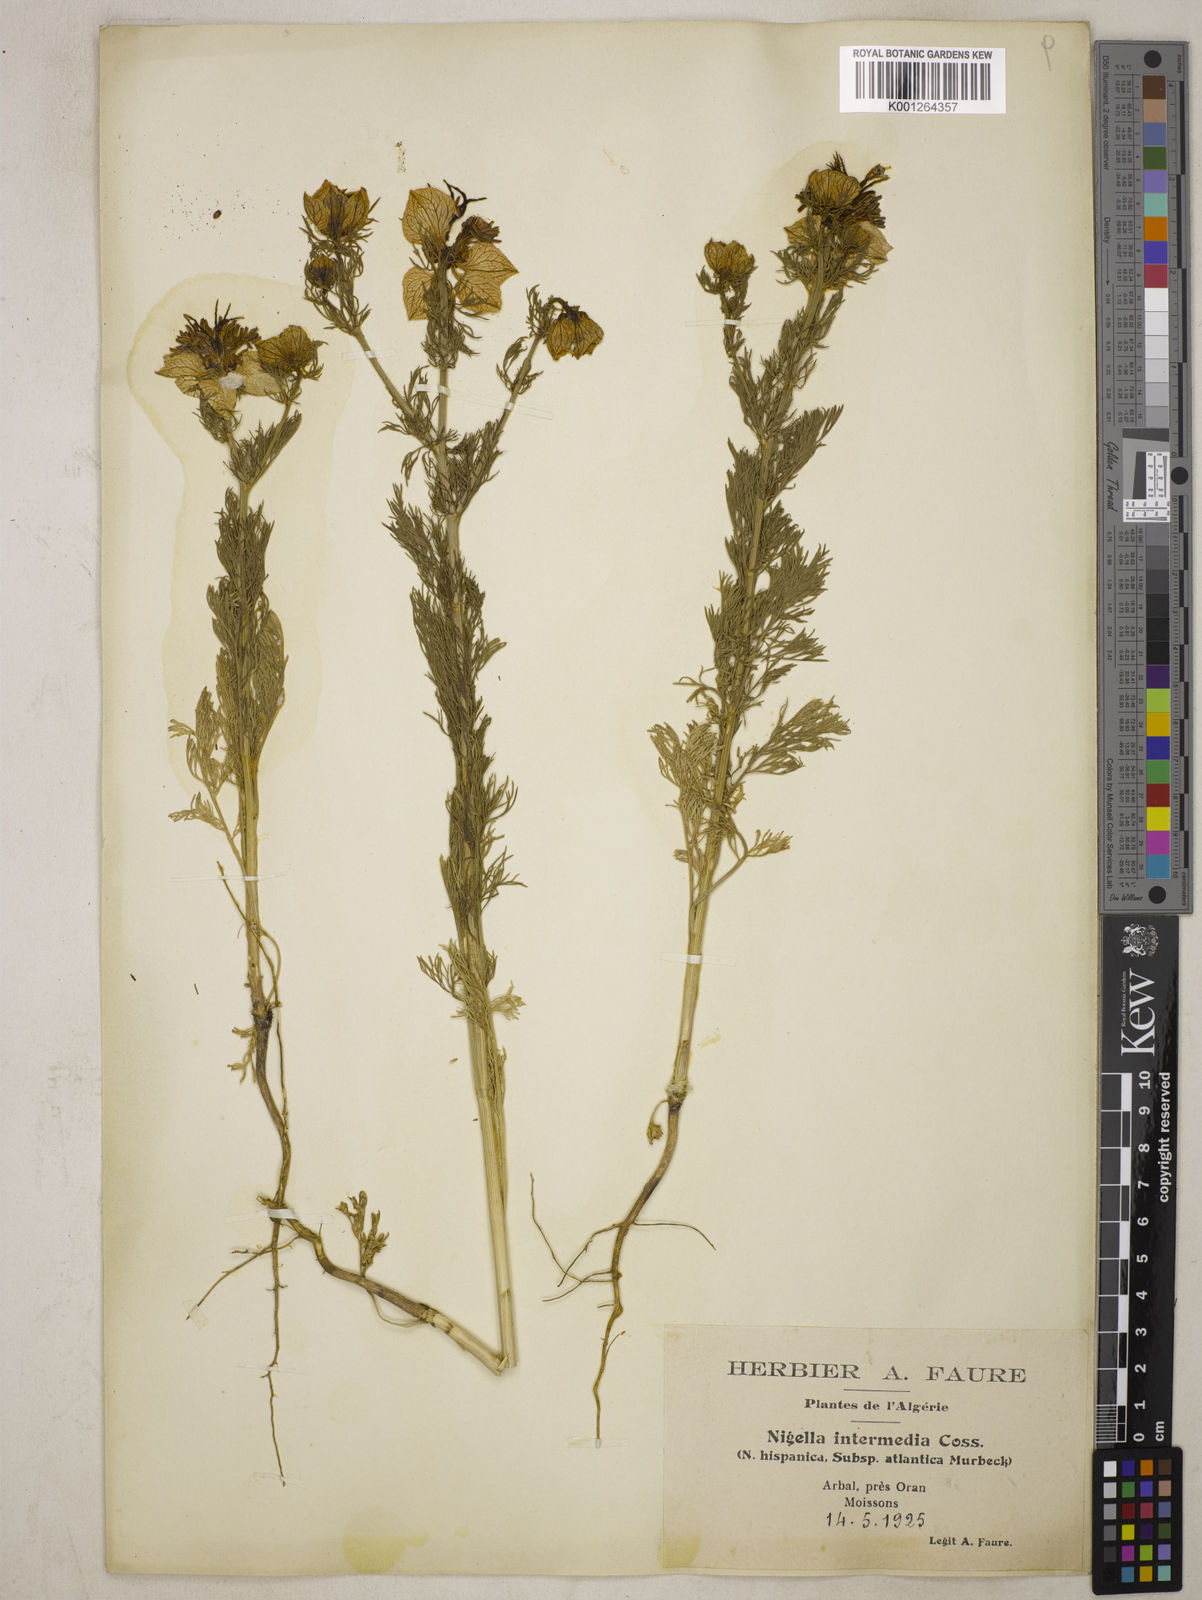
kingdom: Plantae
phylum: Tracheophyta
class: Magnoliopsida
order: Ranunculales
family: Ranunculaceae
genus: Nigella
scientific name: Nigella hispanica
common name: Fennel-flower
